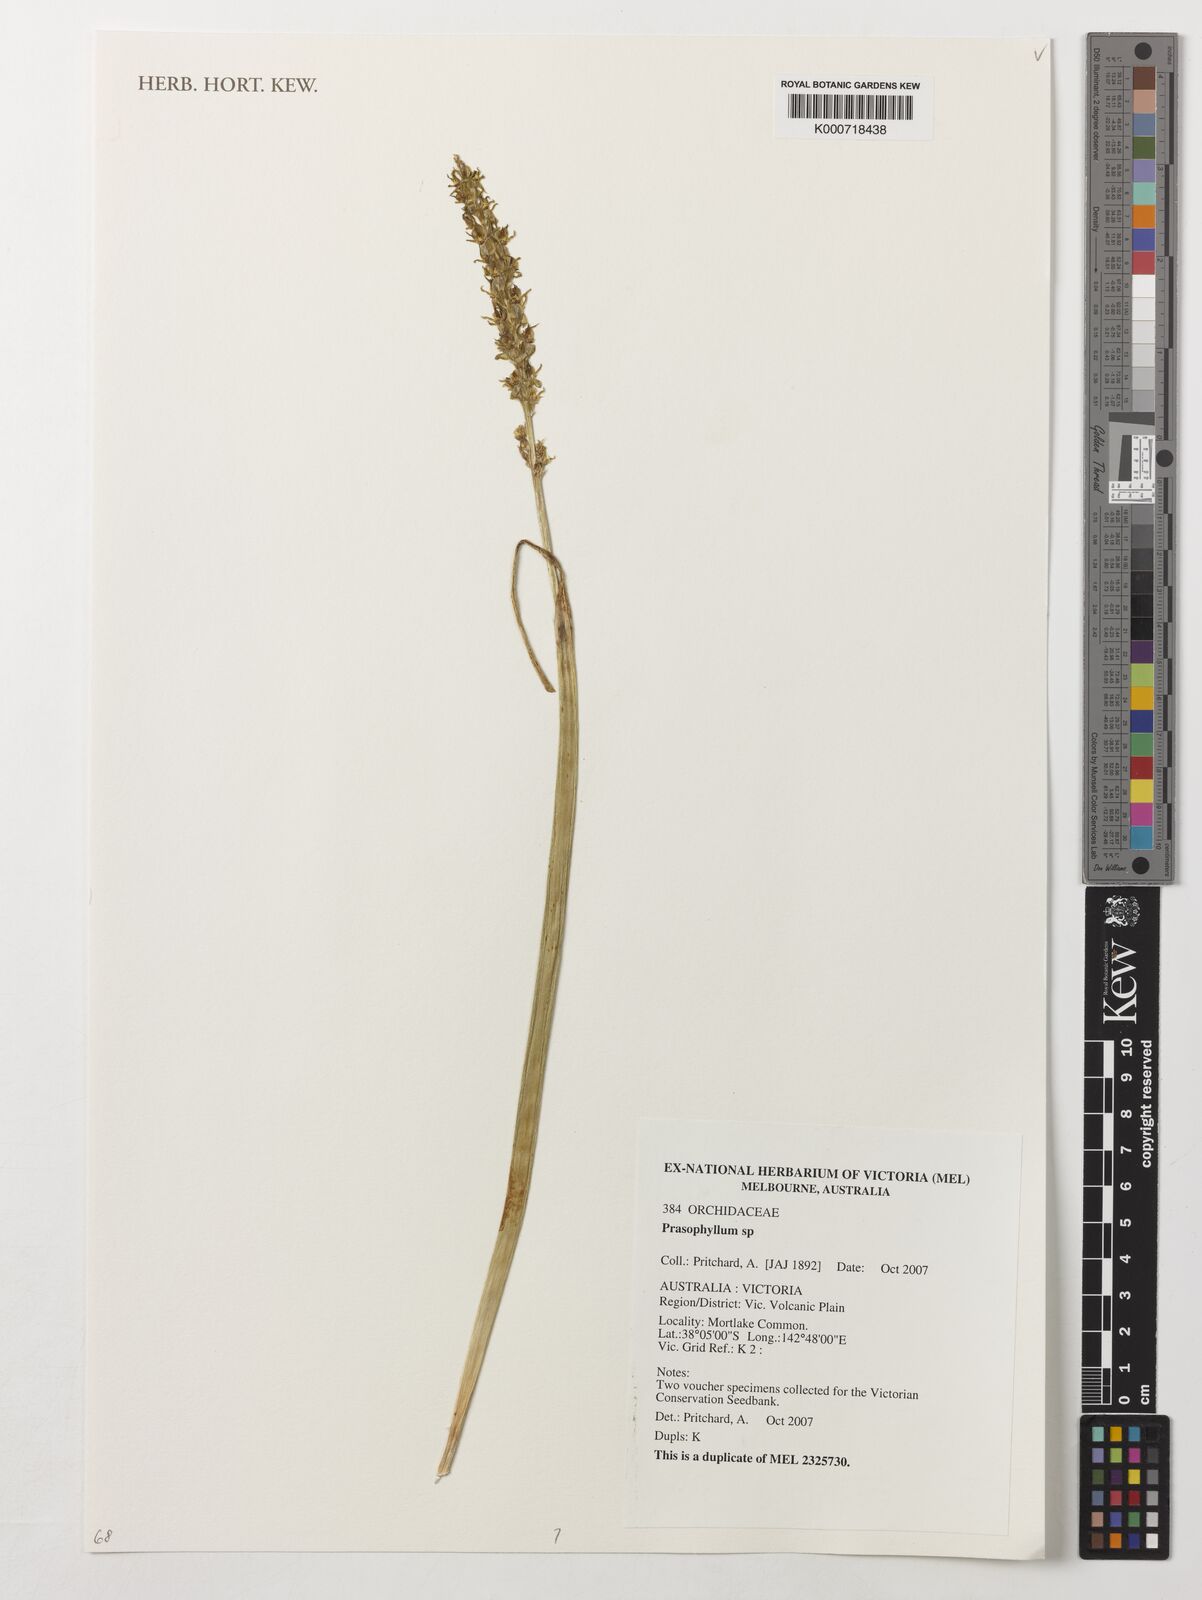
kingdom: Plantae
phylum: Tracheophyta
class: Liliopsida
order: Asparagales
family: Orchidaceae
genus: Prasophyllum
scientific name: Prasophyllum
